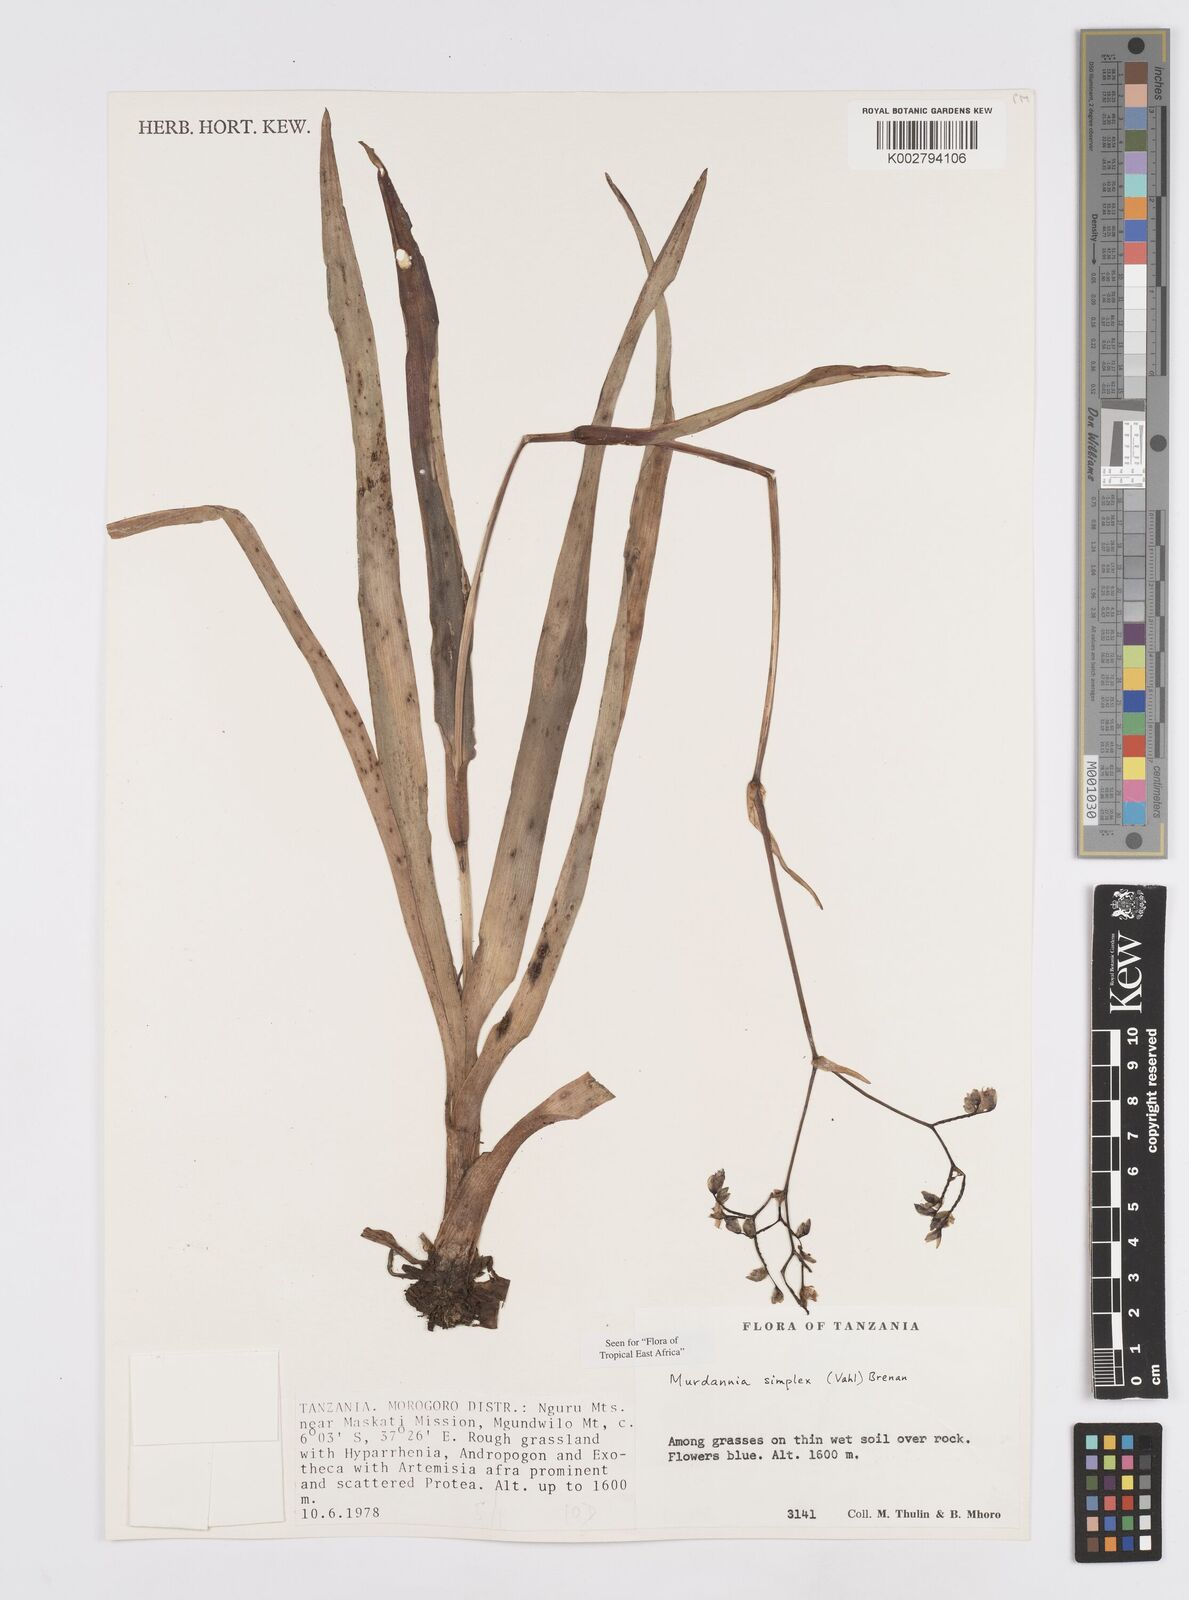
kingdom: Plantae
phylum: Tracheophyta
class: Liliopsida
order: Commelinales
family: Commelinaceae
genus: Murdannia
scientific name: Murdannia simplex
